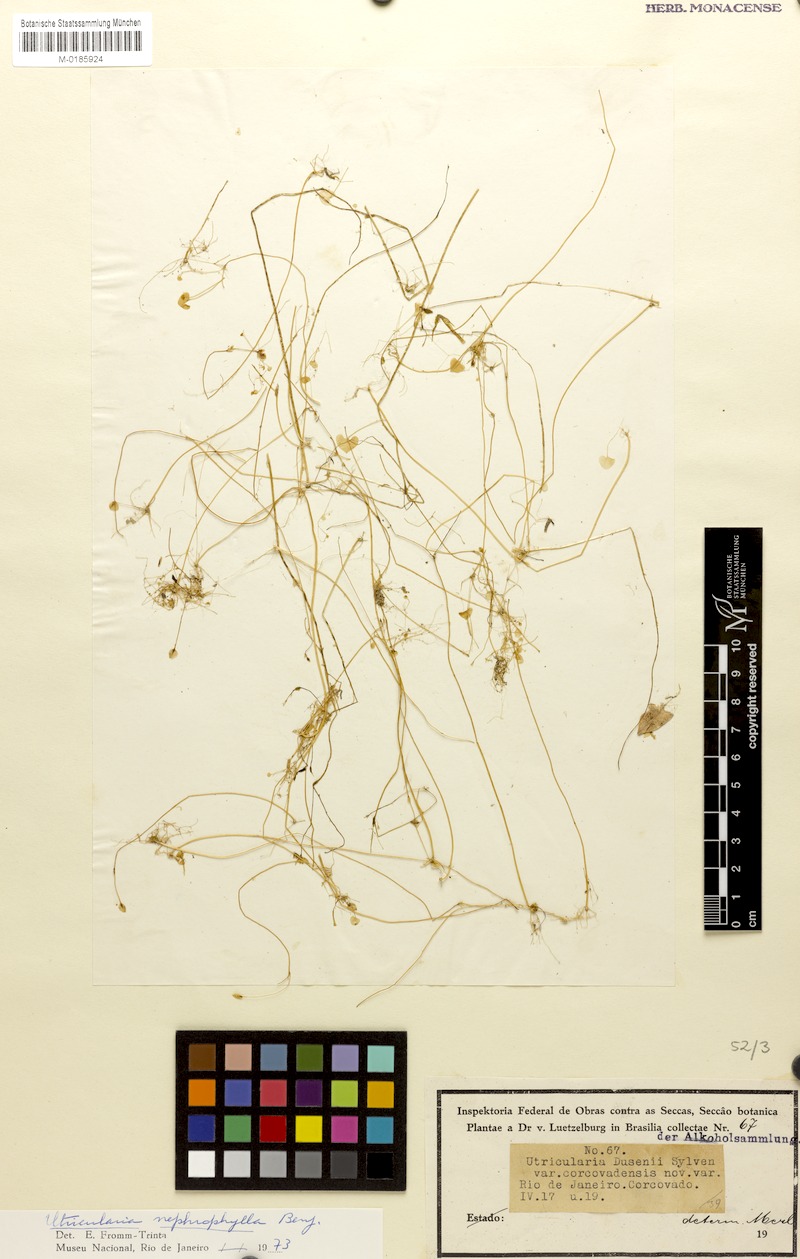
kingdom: Plantae
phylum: Tracheophyta
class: Magnoliopsida
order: Lamiales
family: Lentibulariaceae
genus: Utricularia
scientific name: Utricularia nephrophylla
